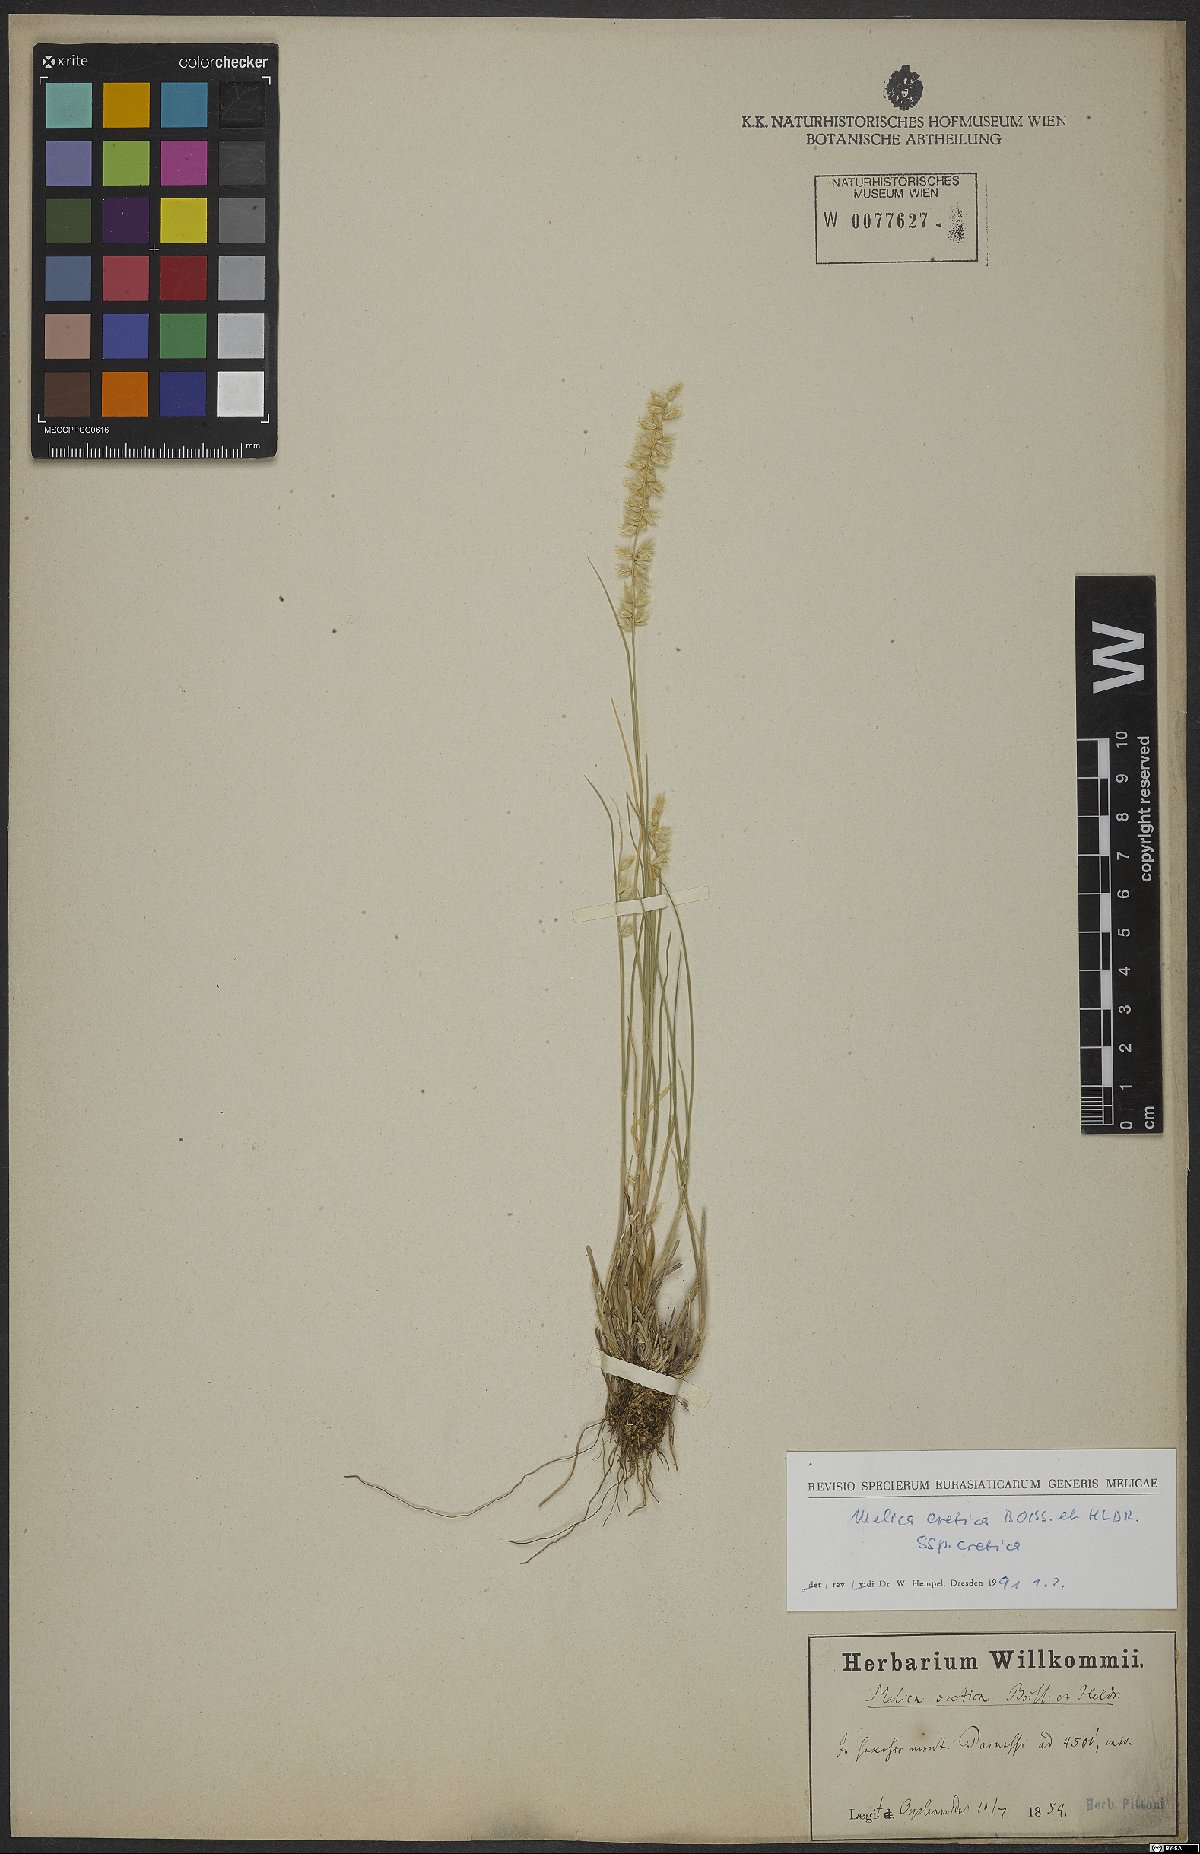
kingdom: Plantae
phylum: Tracheophyta
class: Liliopsida
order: Poales
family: Poaceae
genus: Melica
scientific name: Melica ciliata
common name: Hairy melicgrass
